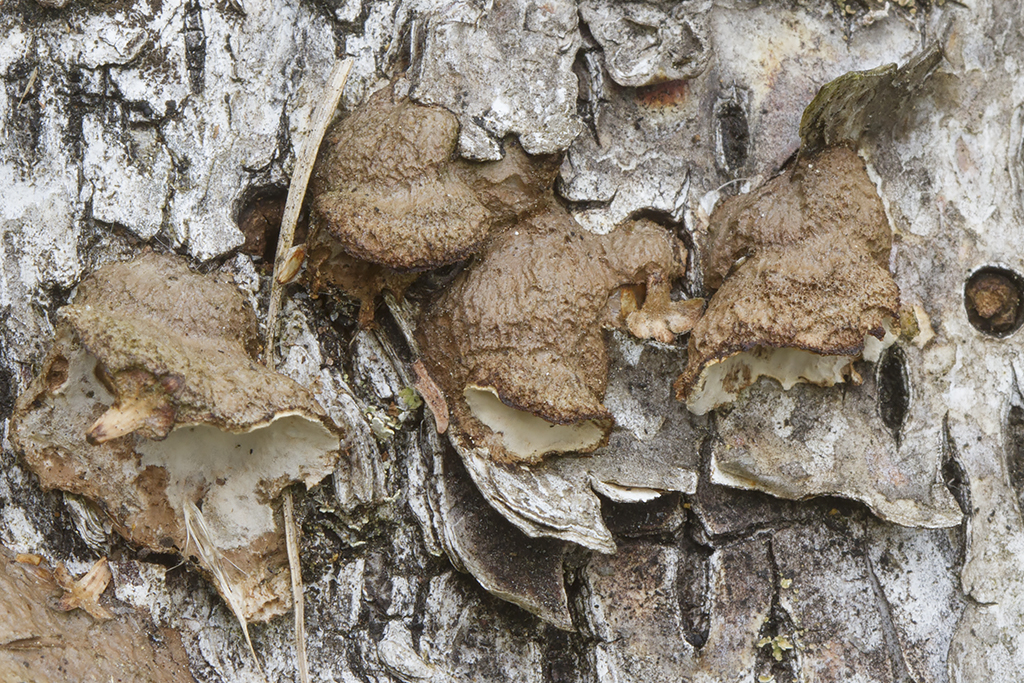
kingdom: Fungi
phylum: Basidiomycota
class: Agaricomycetes
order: Russulales
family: Hericiaceae
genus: Laxitextum
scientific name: Laxitextum bicolor
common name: tvefarvet filtskind
